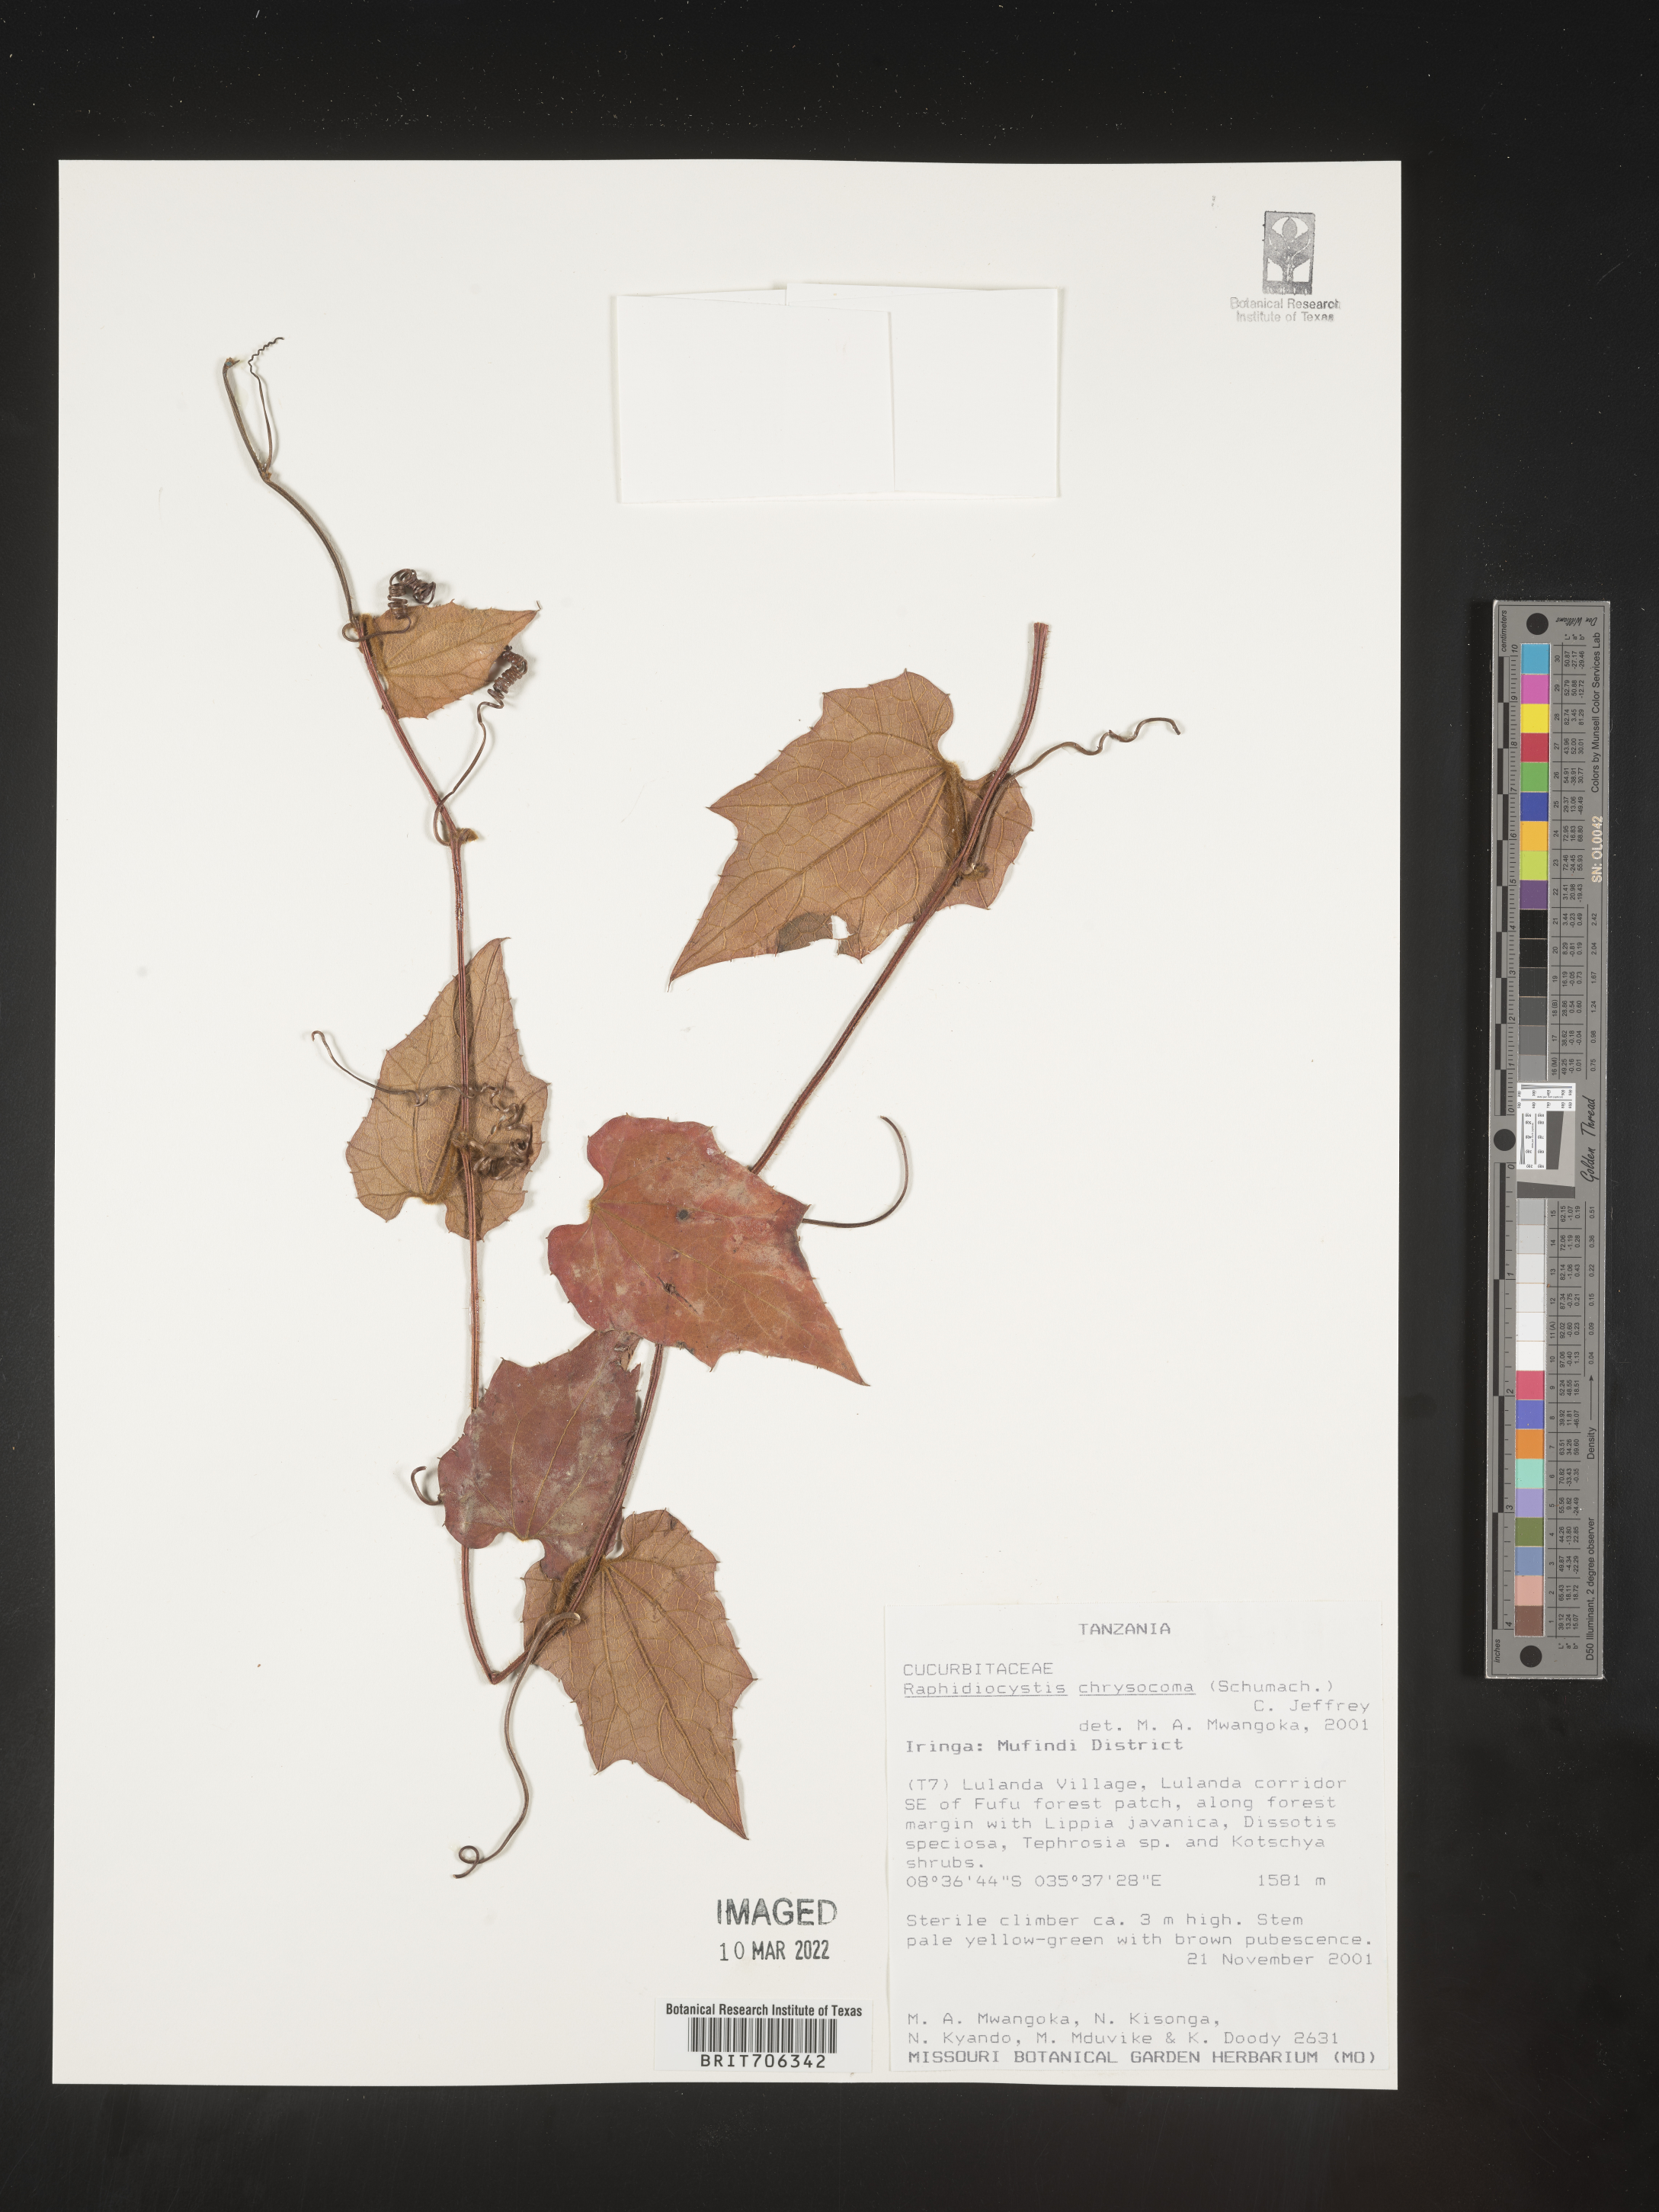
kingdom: Plantae
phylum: Tracheophyta
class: Magnoliopsida
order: Cucurbitales
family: Cucurbitaceae
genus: Raphidiocystis
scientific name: Raphidiocystis
